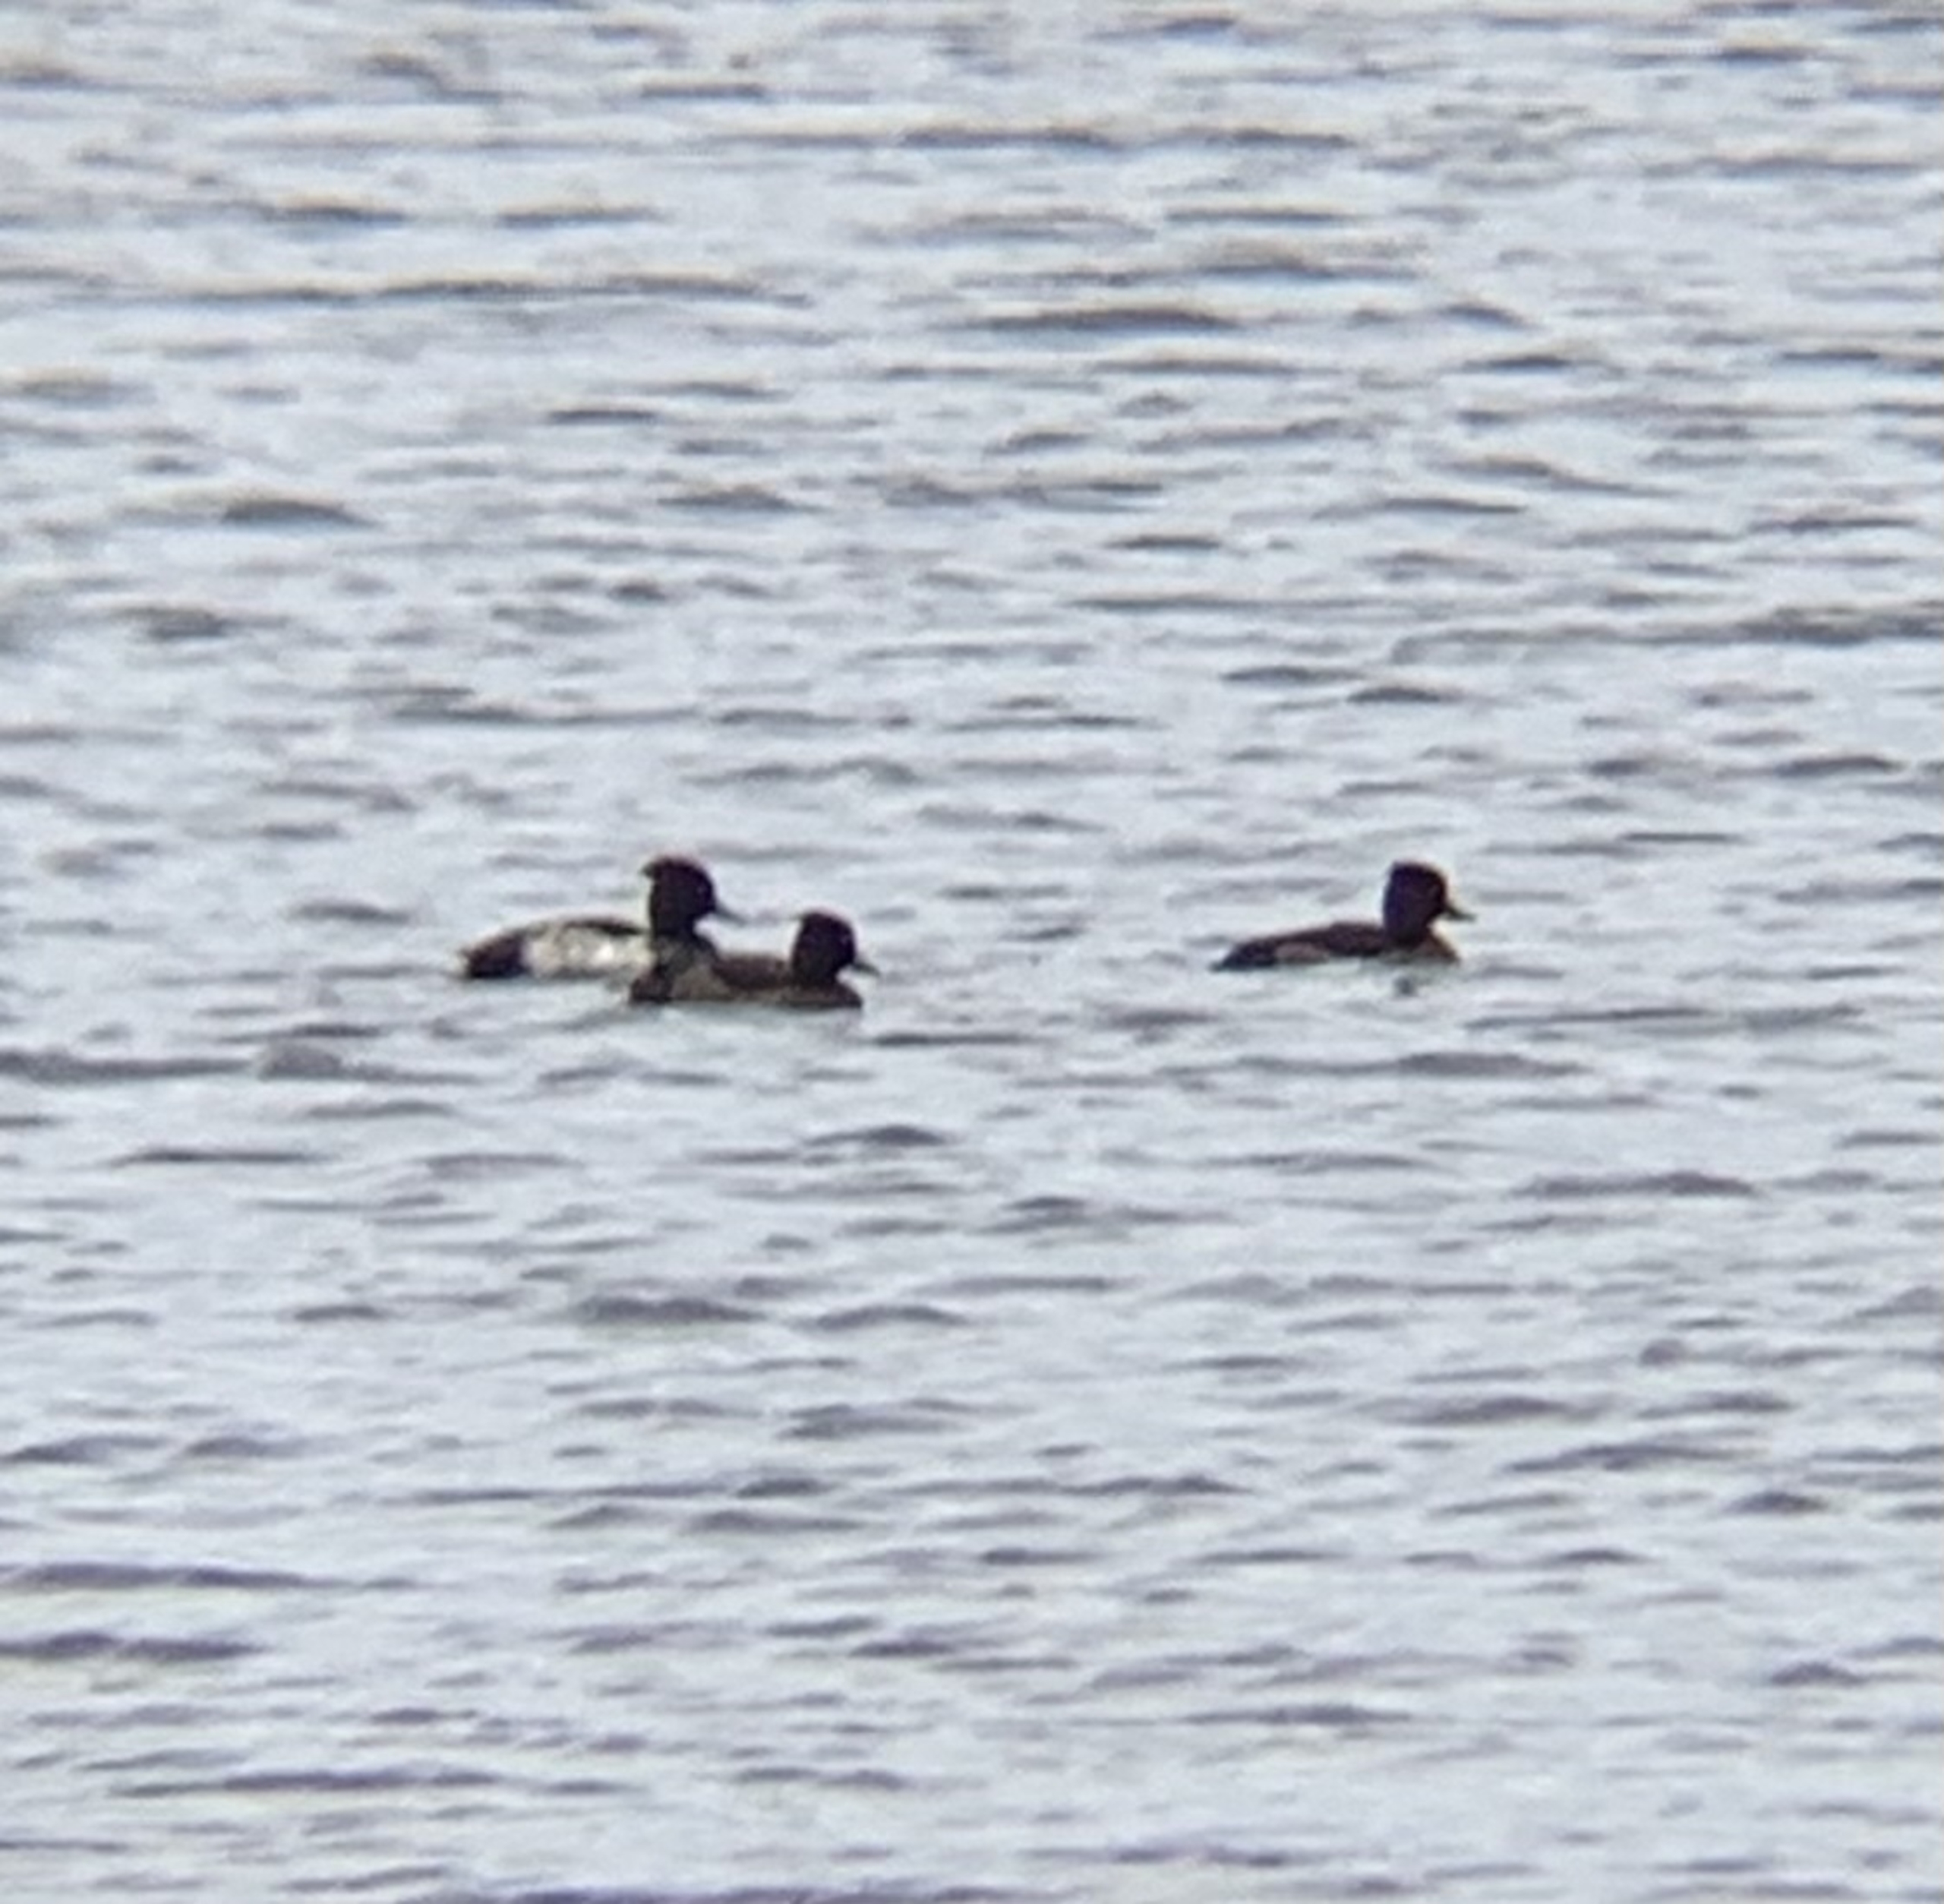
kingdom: Animalia
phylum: Chordata
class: Aves
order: Anseriformes
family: Anatidae
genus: Aythya
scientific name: Aythya fuligula
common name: Troldand
